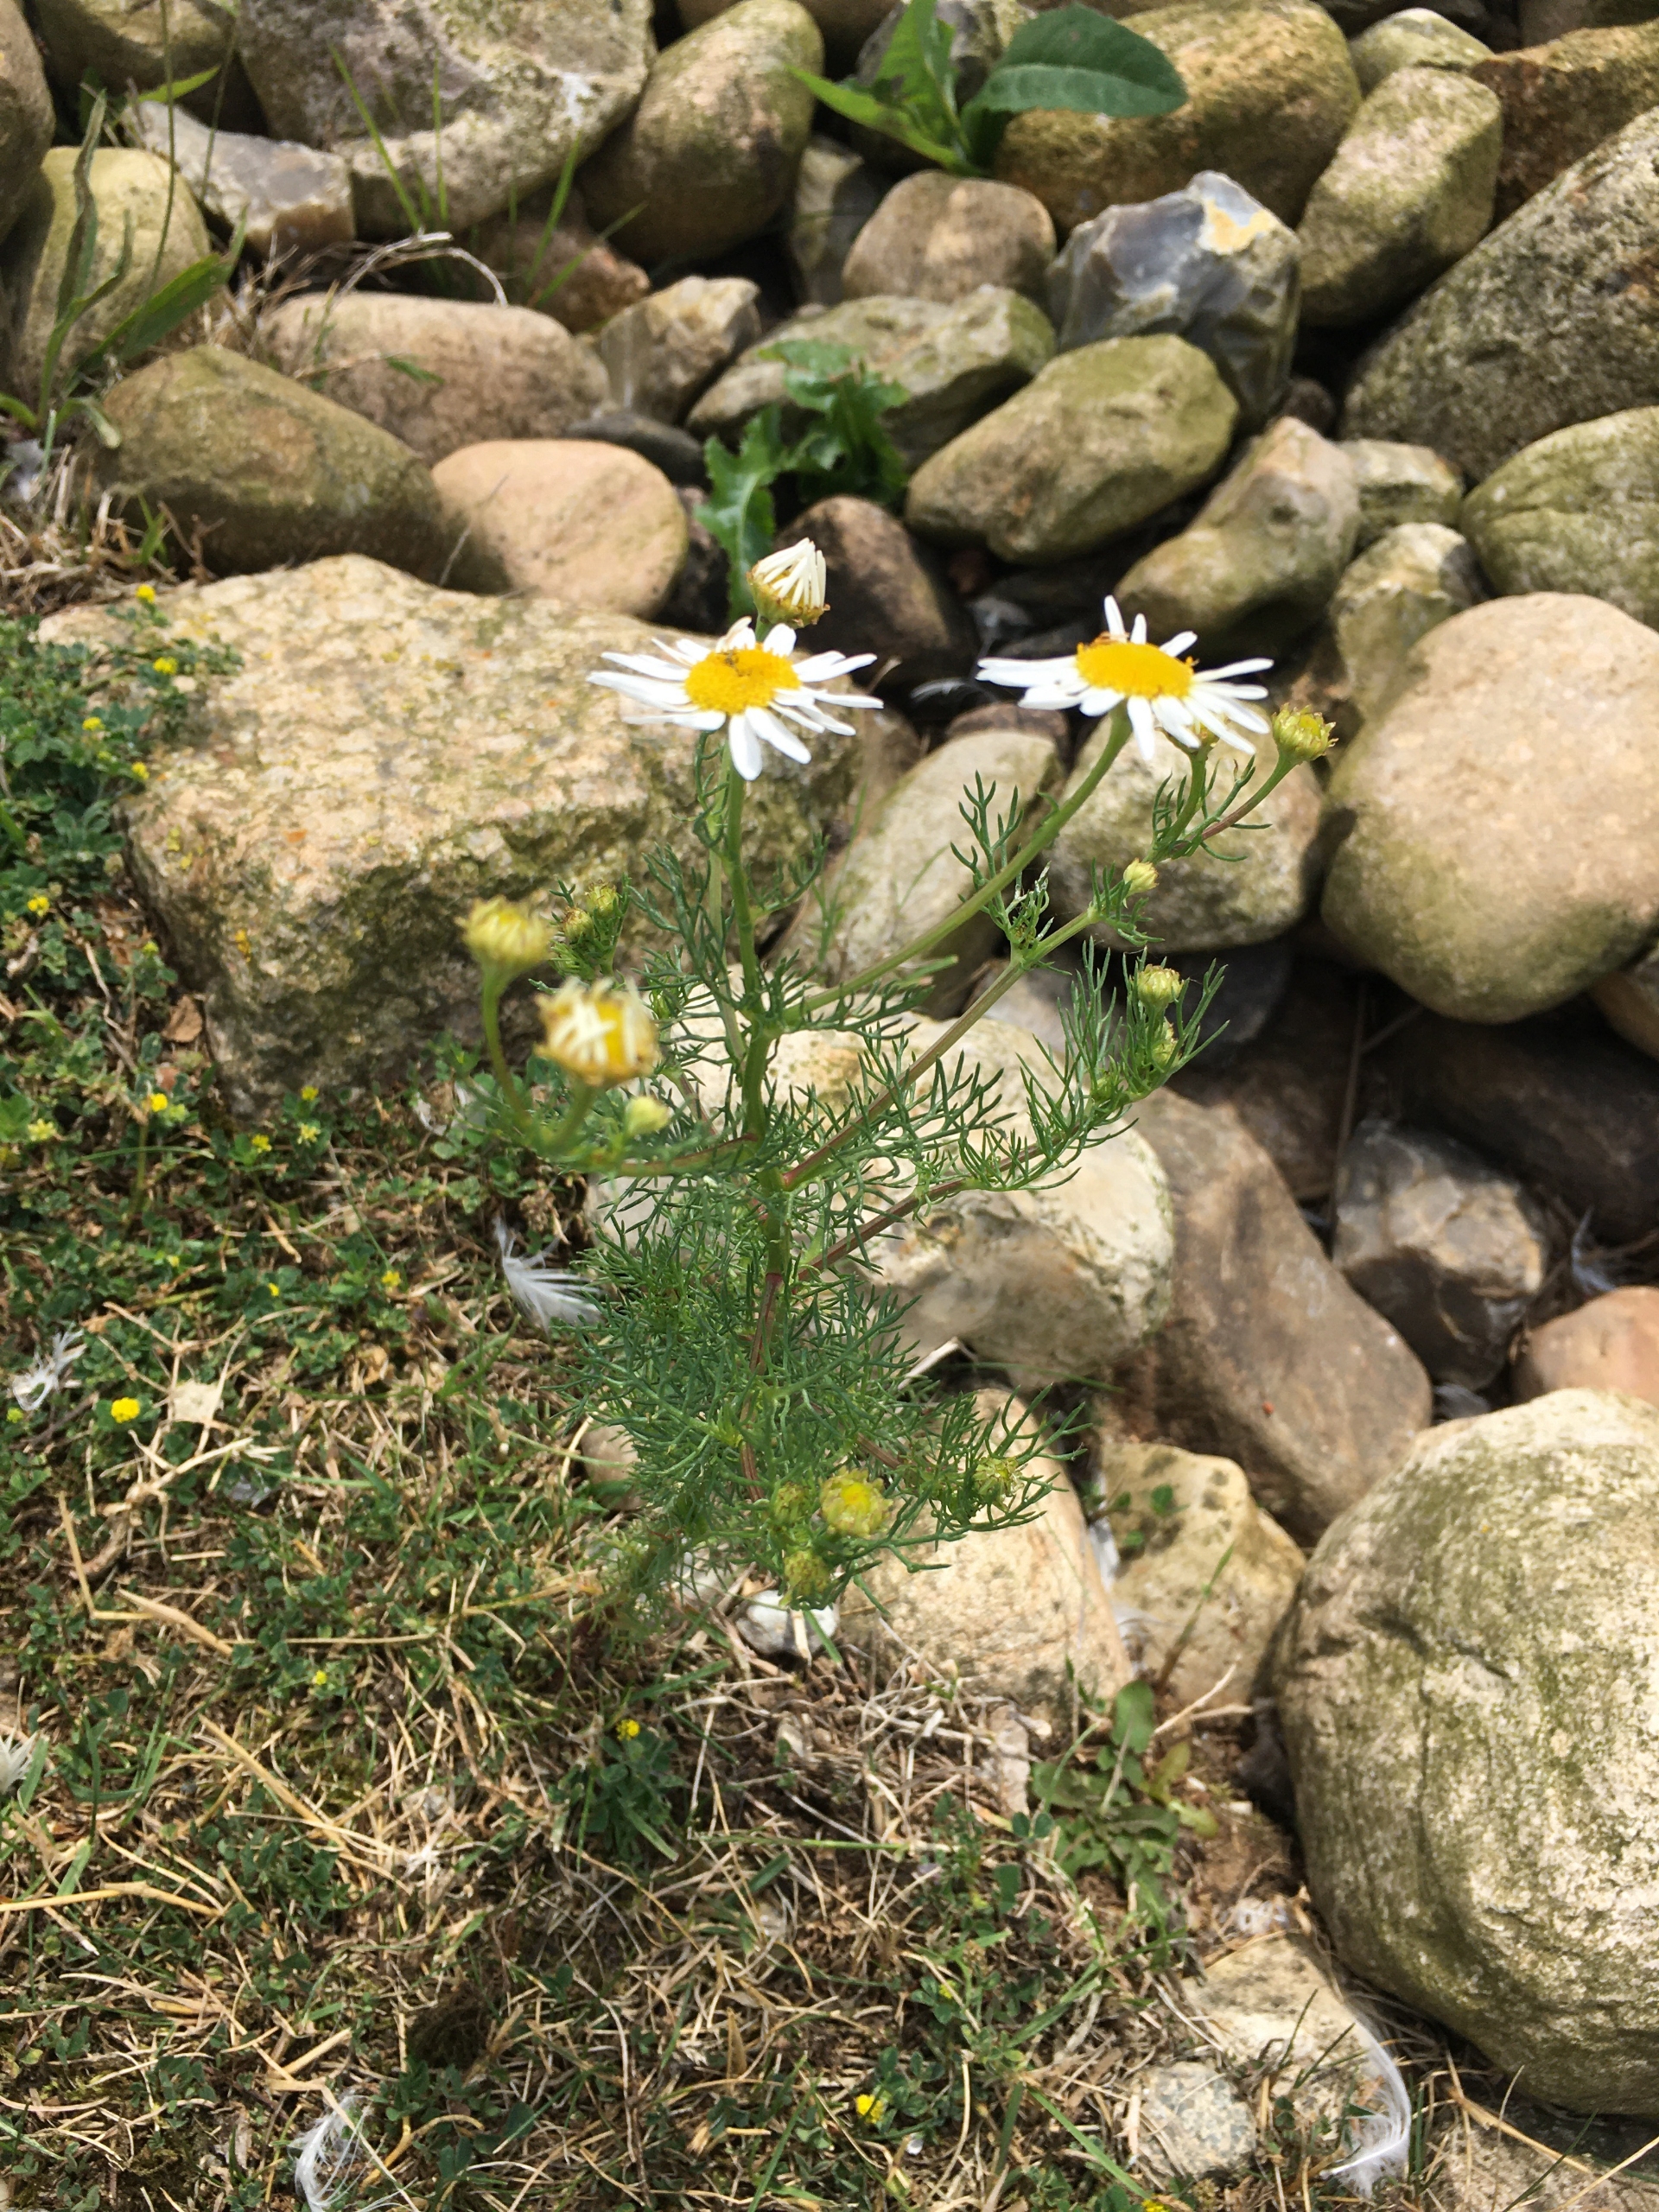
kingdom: Plantae
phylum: Tracheophyta
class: Magnoliopsida
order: Asterales
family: Asteraceae
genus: Tripleurospermum
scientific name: Tripleurospermum inodorum
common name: Lugtløs kamille
